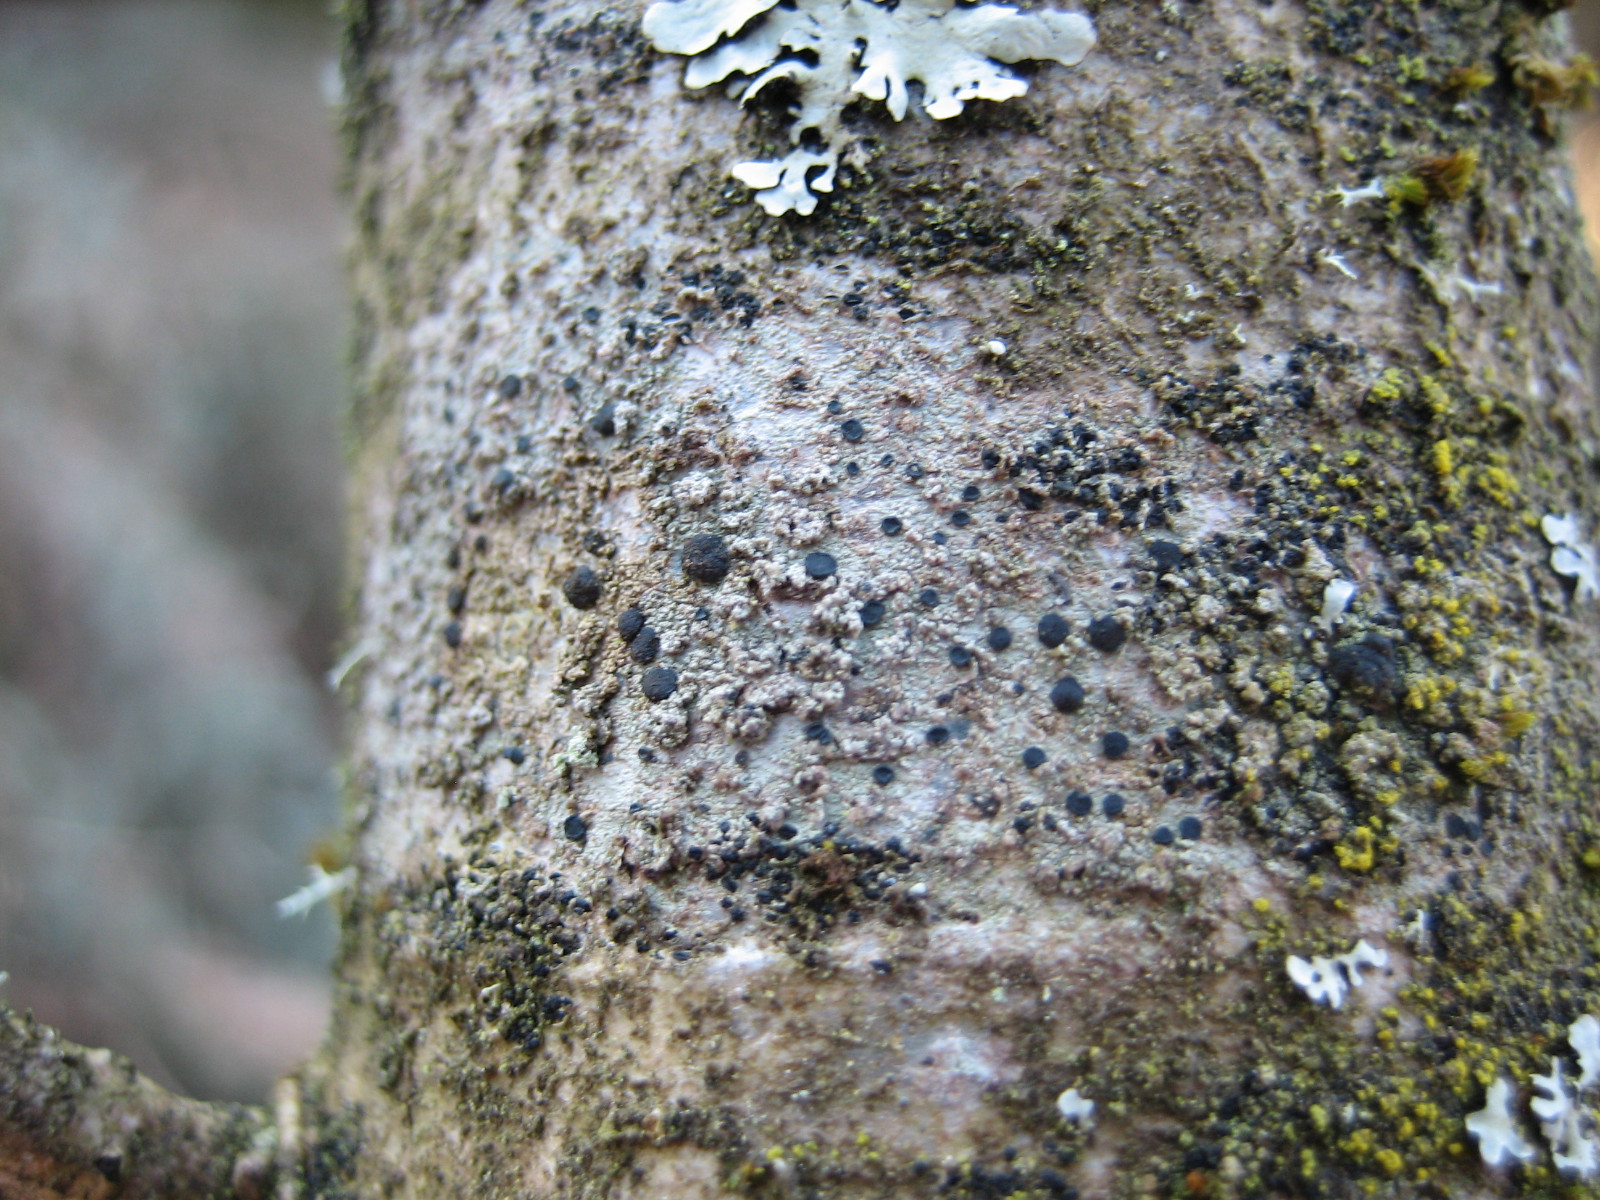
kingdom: Fungi
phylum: Ascomycota
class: Lecanoromycetes
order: Lecanorales
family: Lecanoraceae
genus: Lecidella
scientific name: Lecidella elaeochroma
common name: grågrøn skivelav
